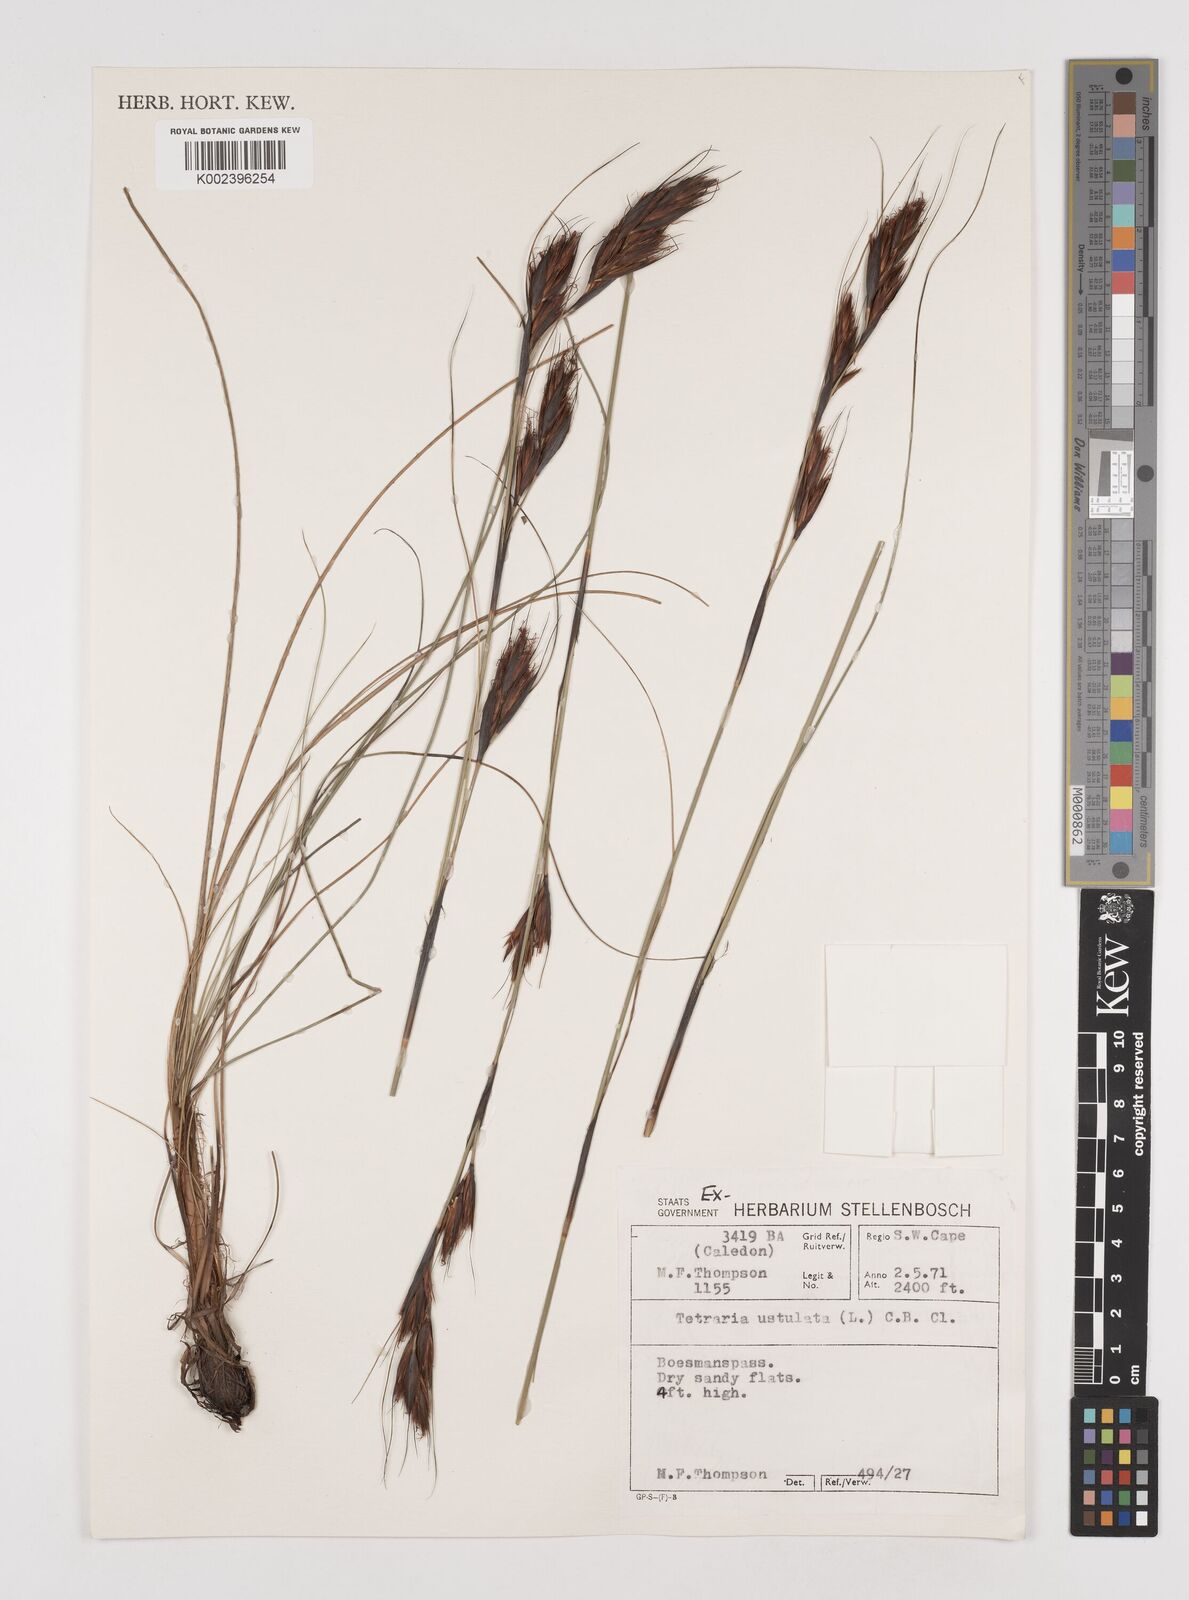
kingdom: Plantae
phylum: Tracheophyta
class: Liliopsida
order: Poales
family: Cyperaceae
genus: Tetraria
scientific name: Tetraria ustulata
